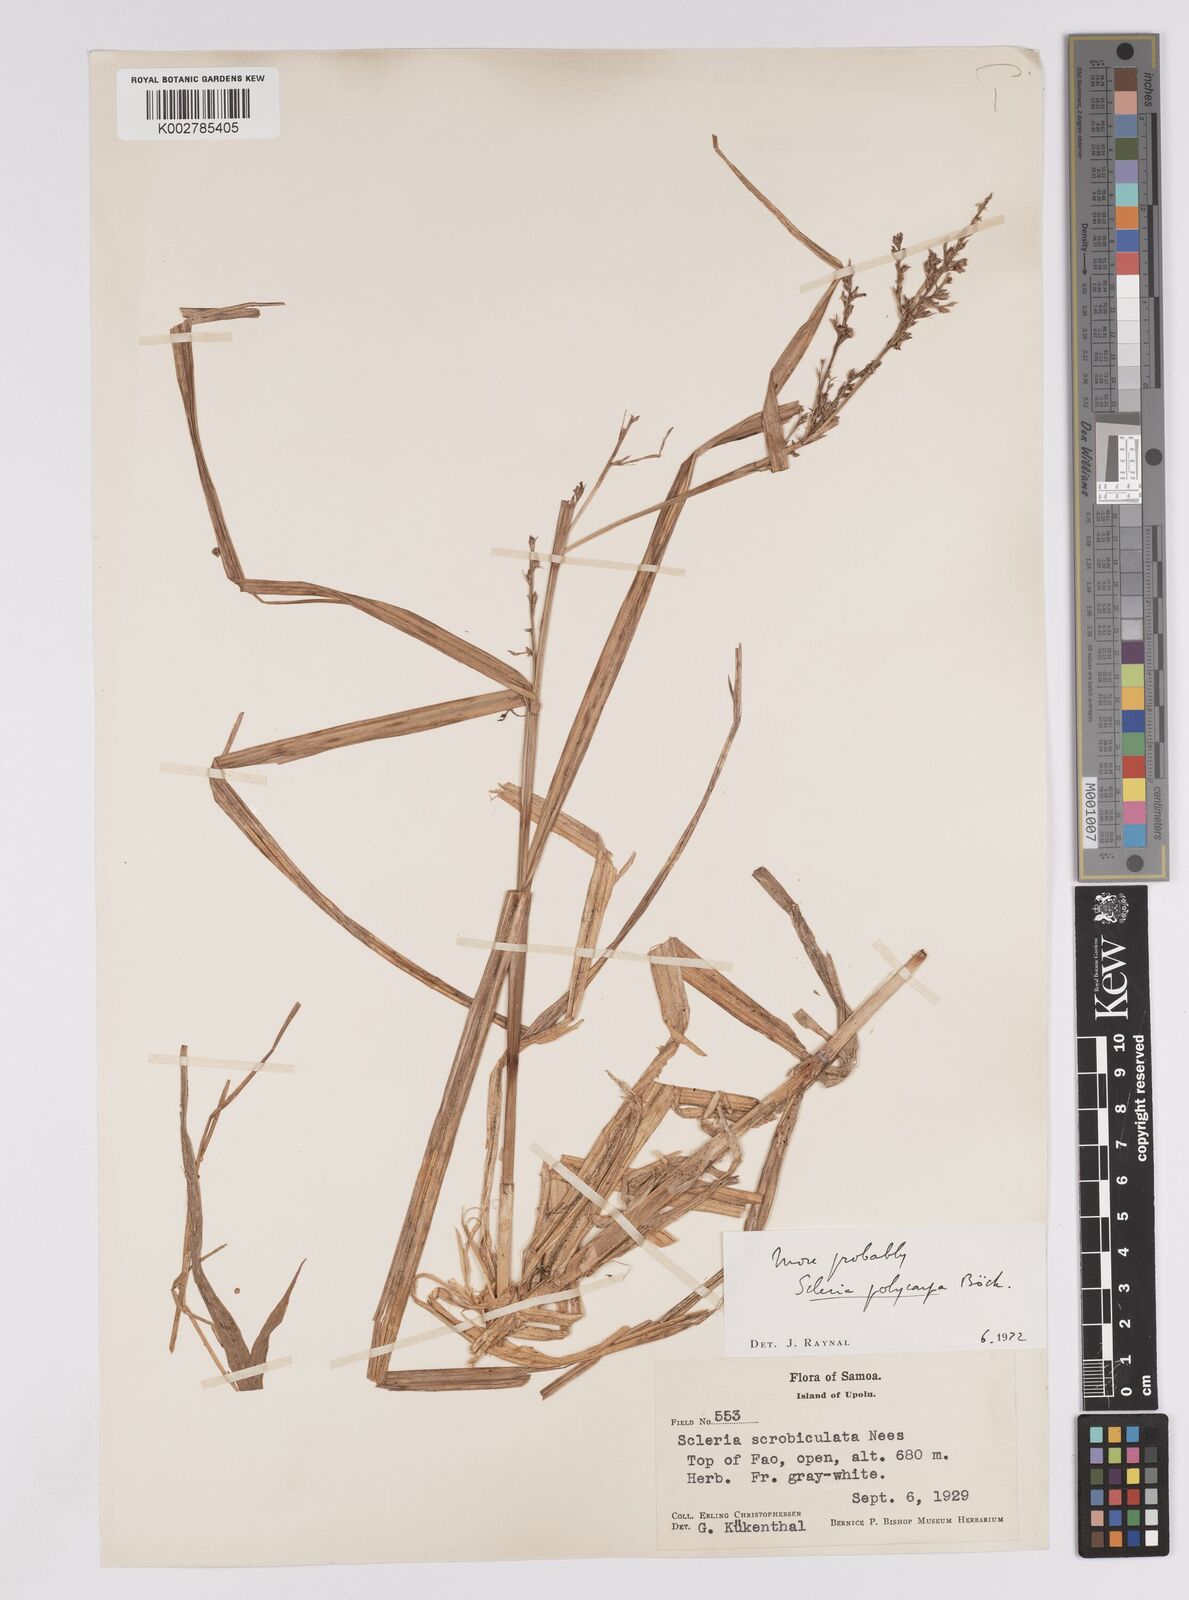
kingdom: Plantae
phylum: Tracheophyta
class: Liliopsida
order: Poales
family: Cyperaceae
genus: Scleria
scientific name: Scleria polycarpa
